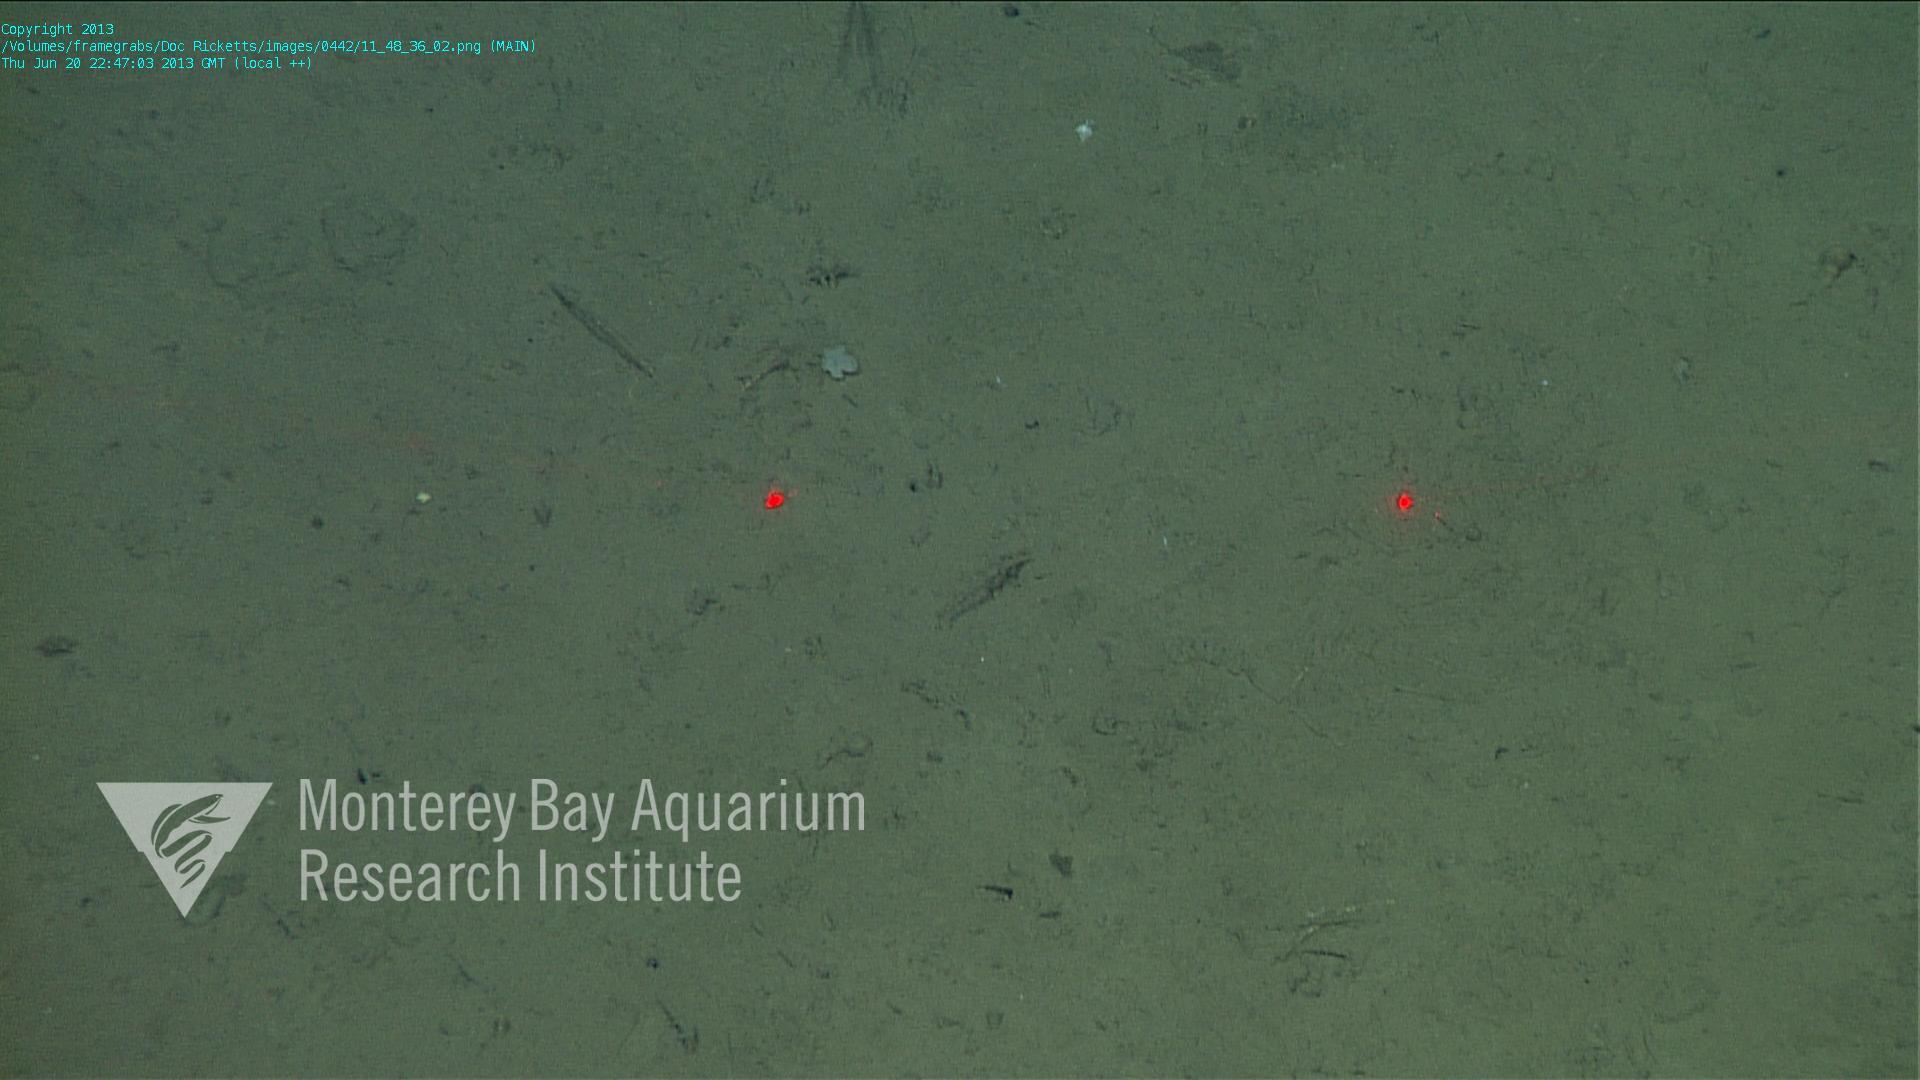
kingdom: Animalia
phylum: Porifera
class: Hexactinellida
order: Lyssacinosida
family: Euplectellidae
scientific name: Euplectellidae
